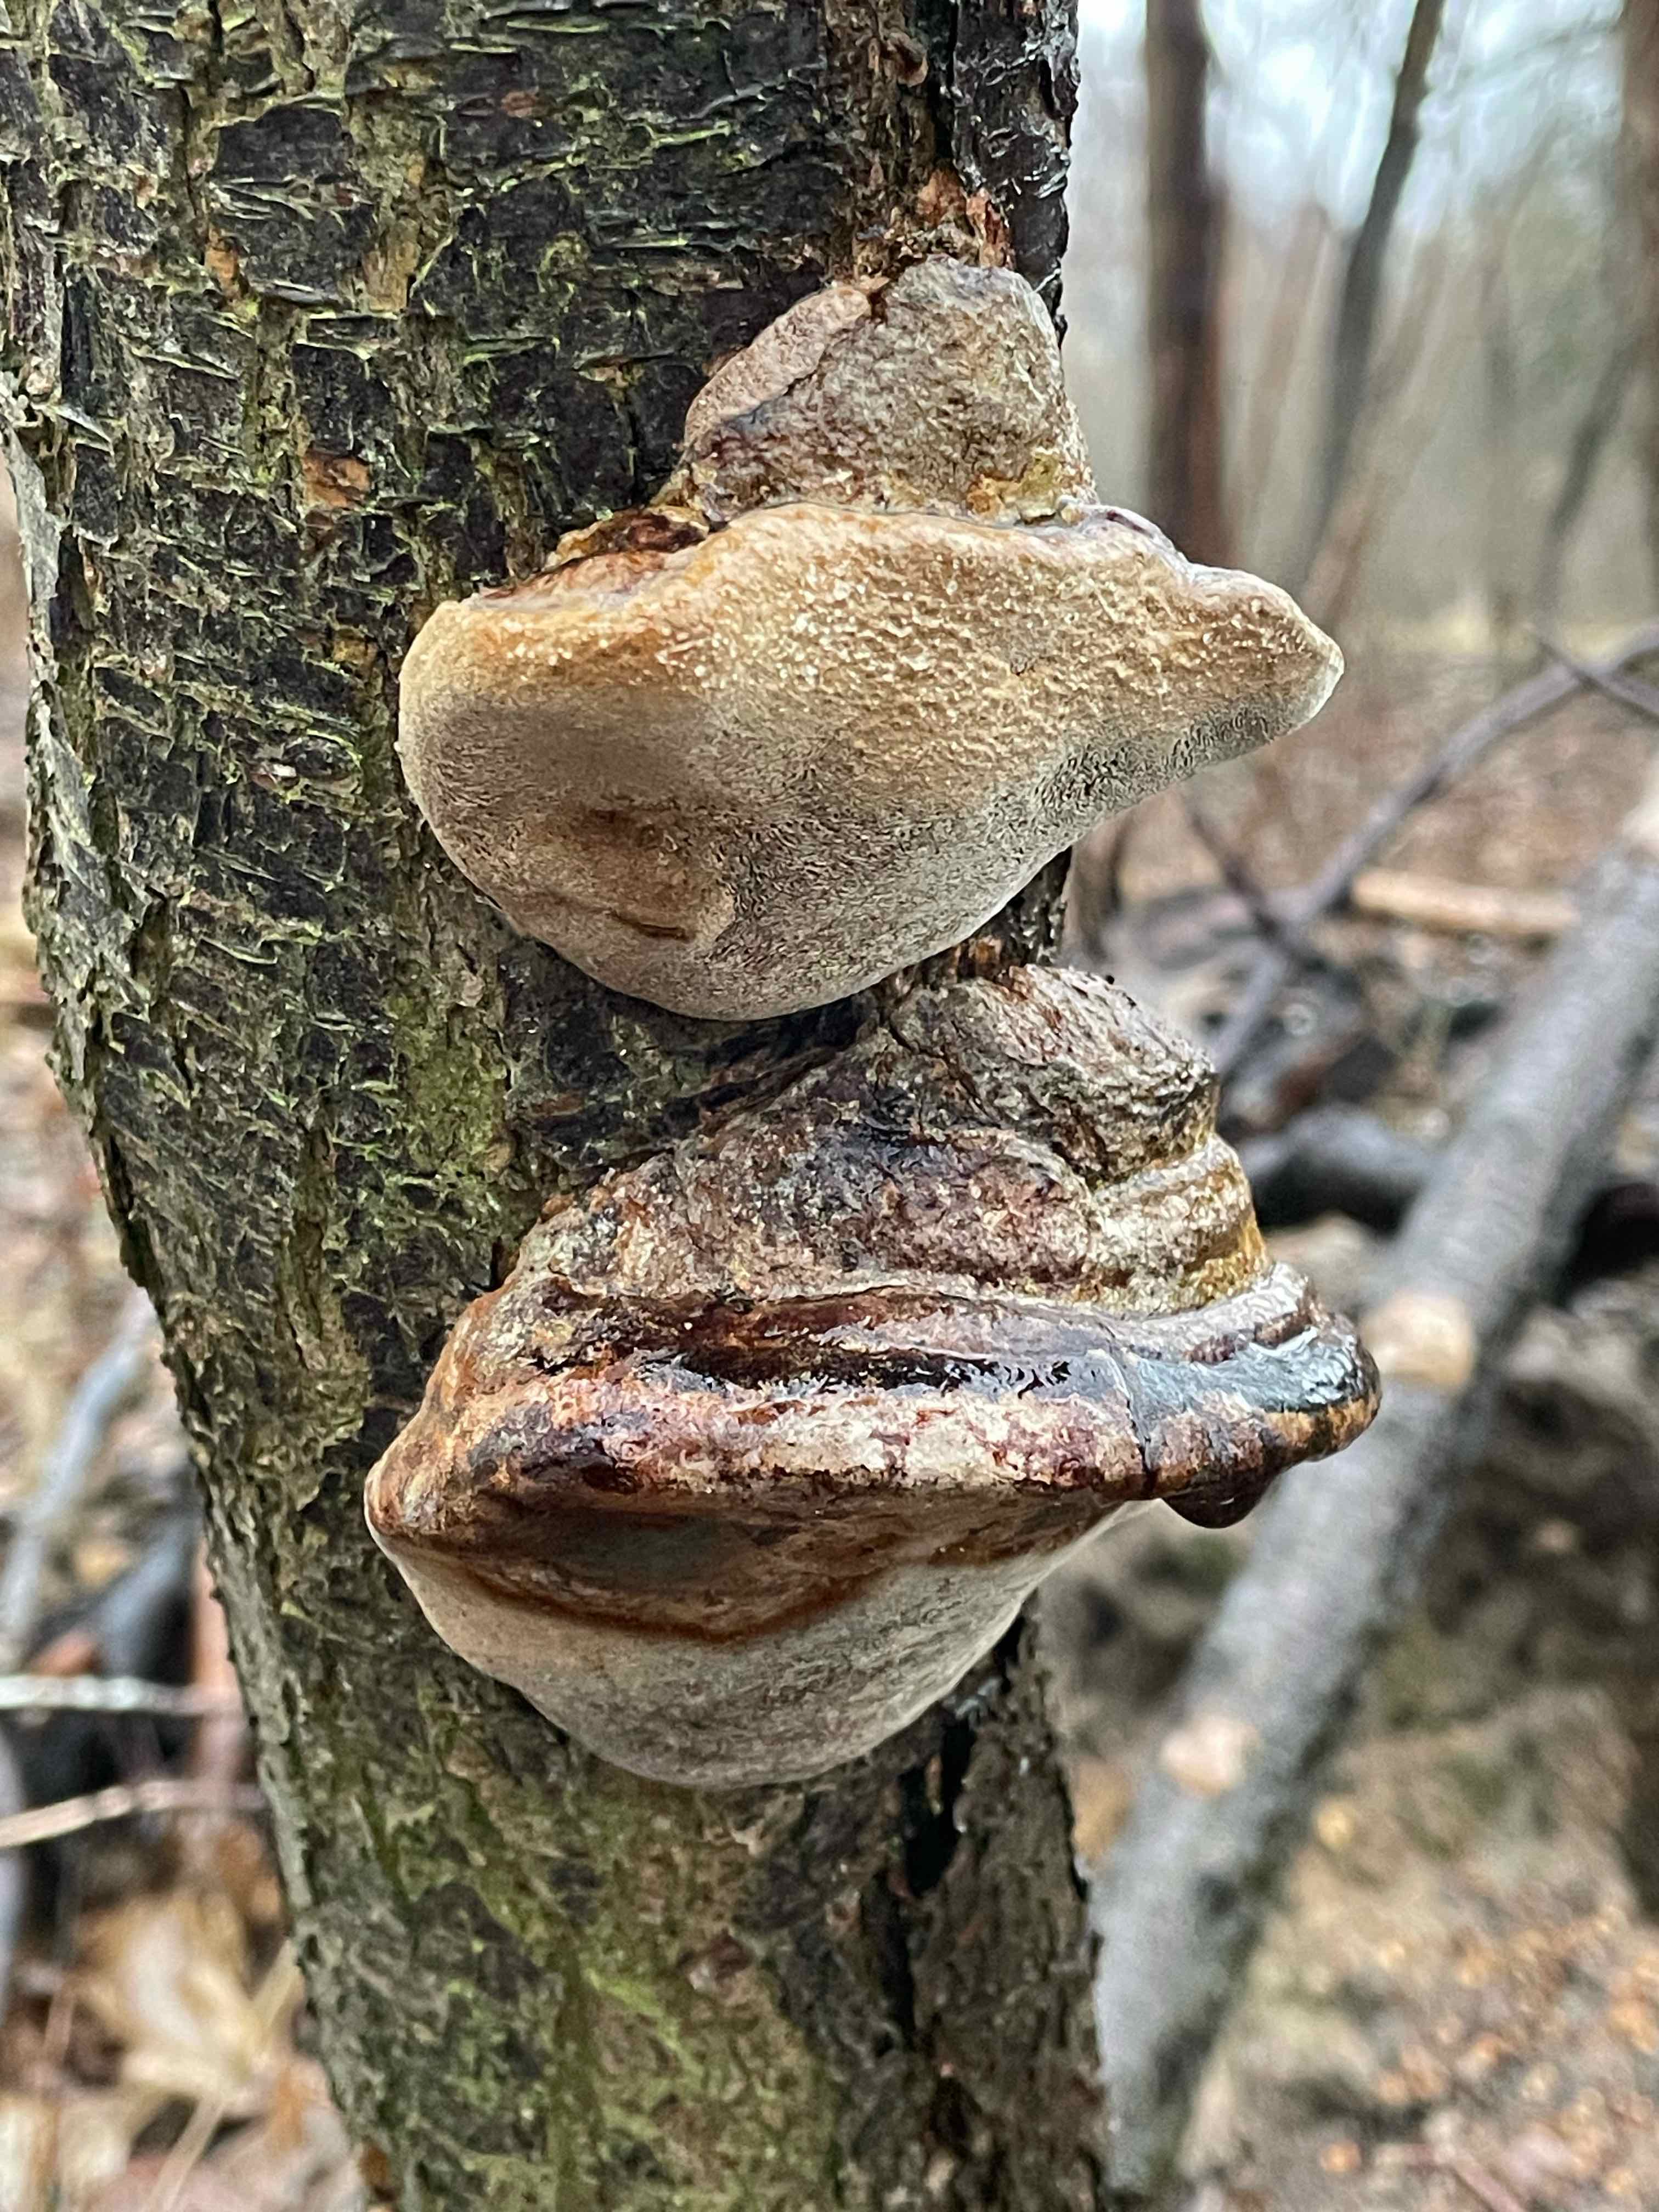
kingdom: Fungi
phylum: Basidiomycota
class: Agaricomycetes
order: Hymenochaetales
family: Hymenochaetaceae
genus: Phellinus
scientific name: Phellinus pomaceus
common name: blomme-ildporesvamp
